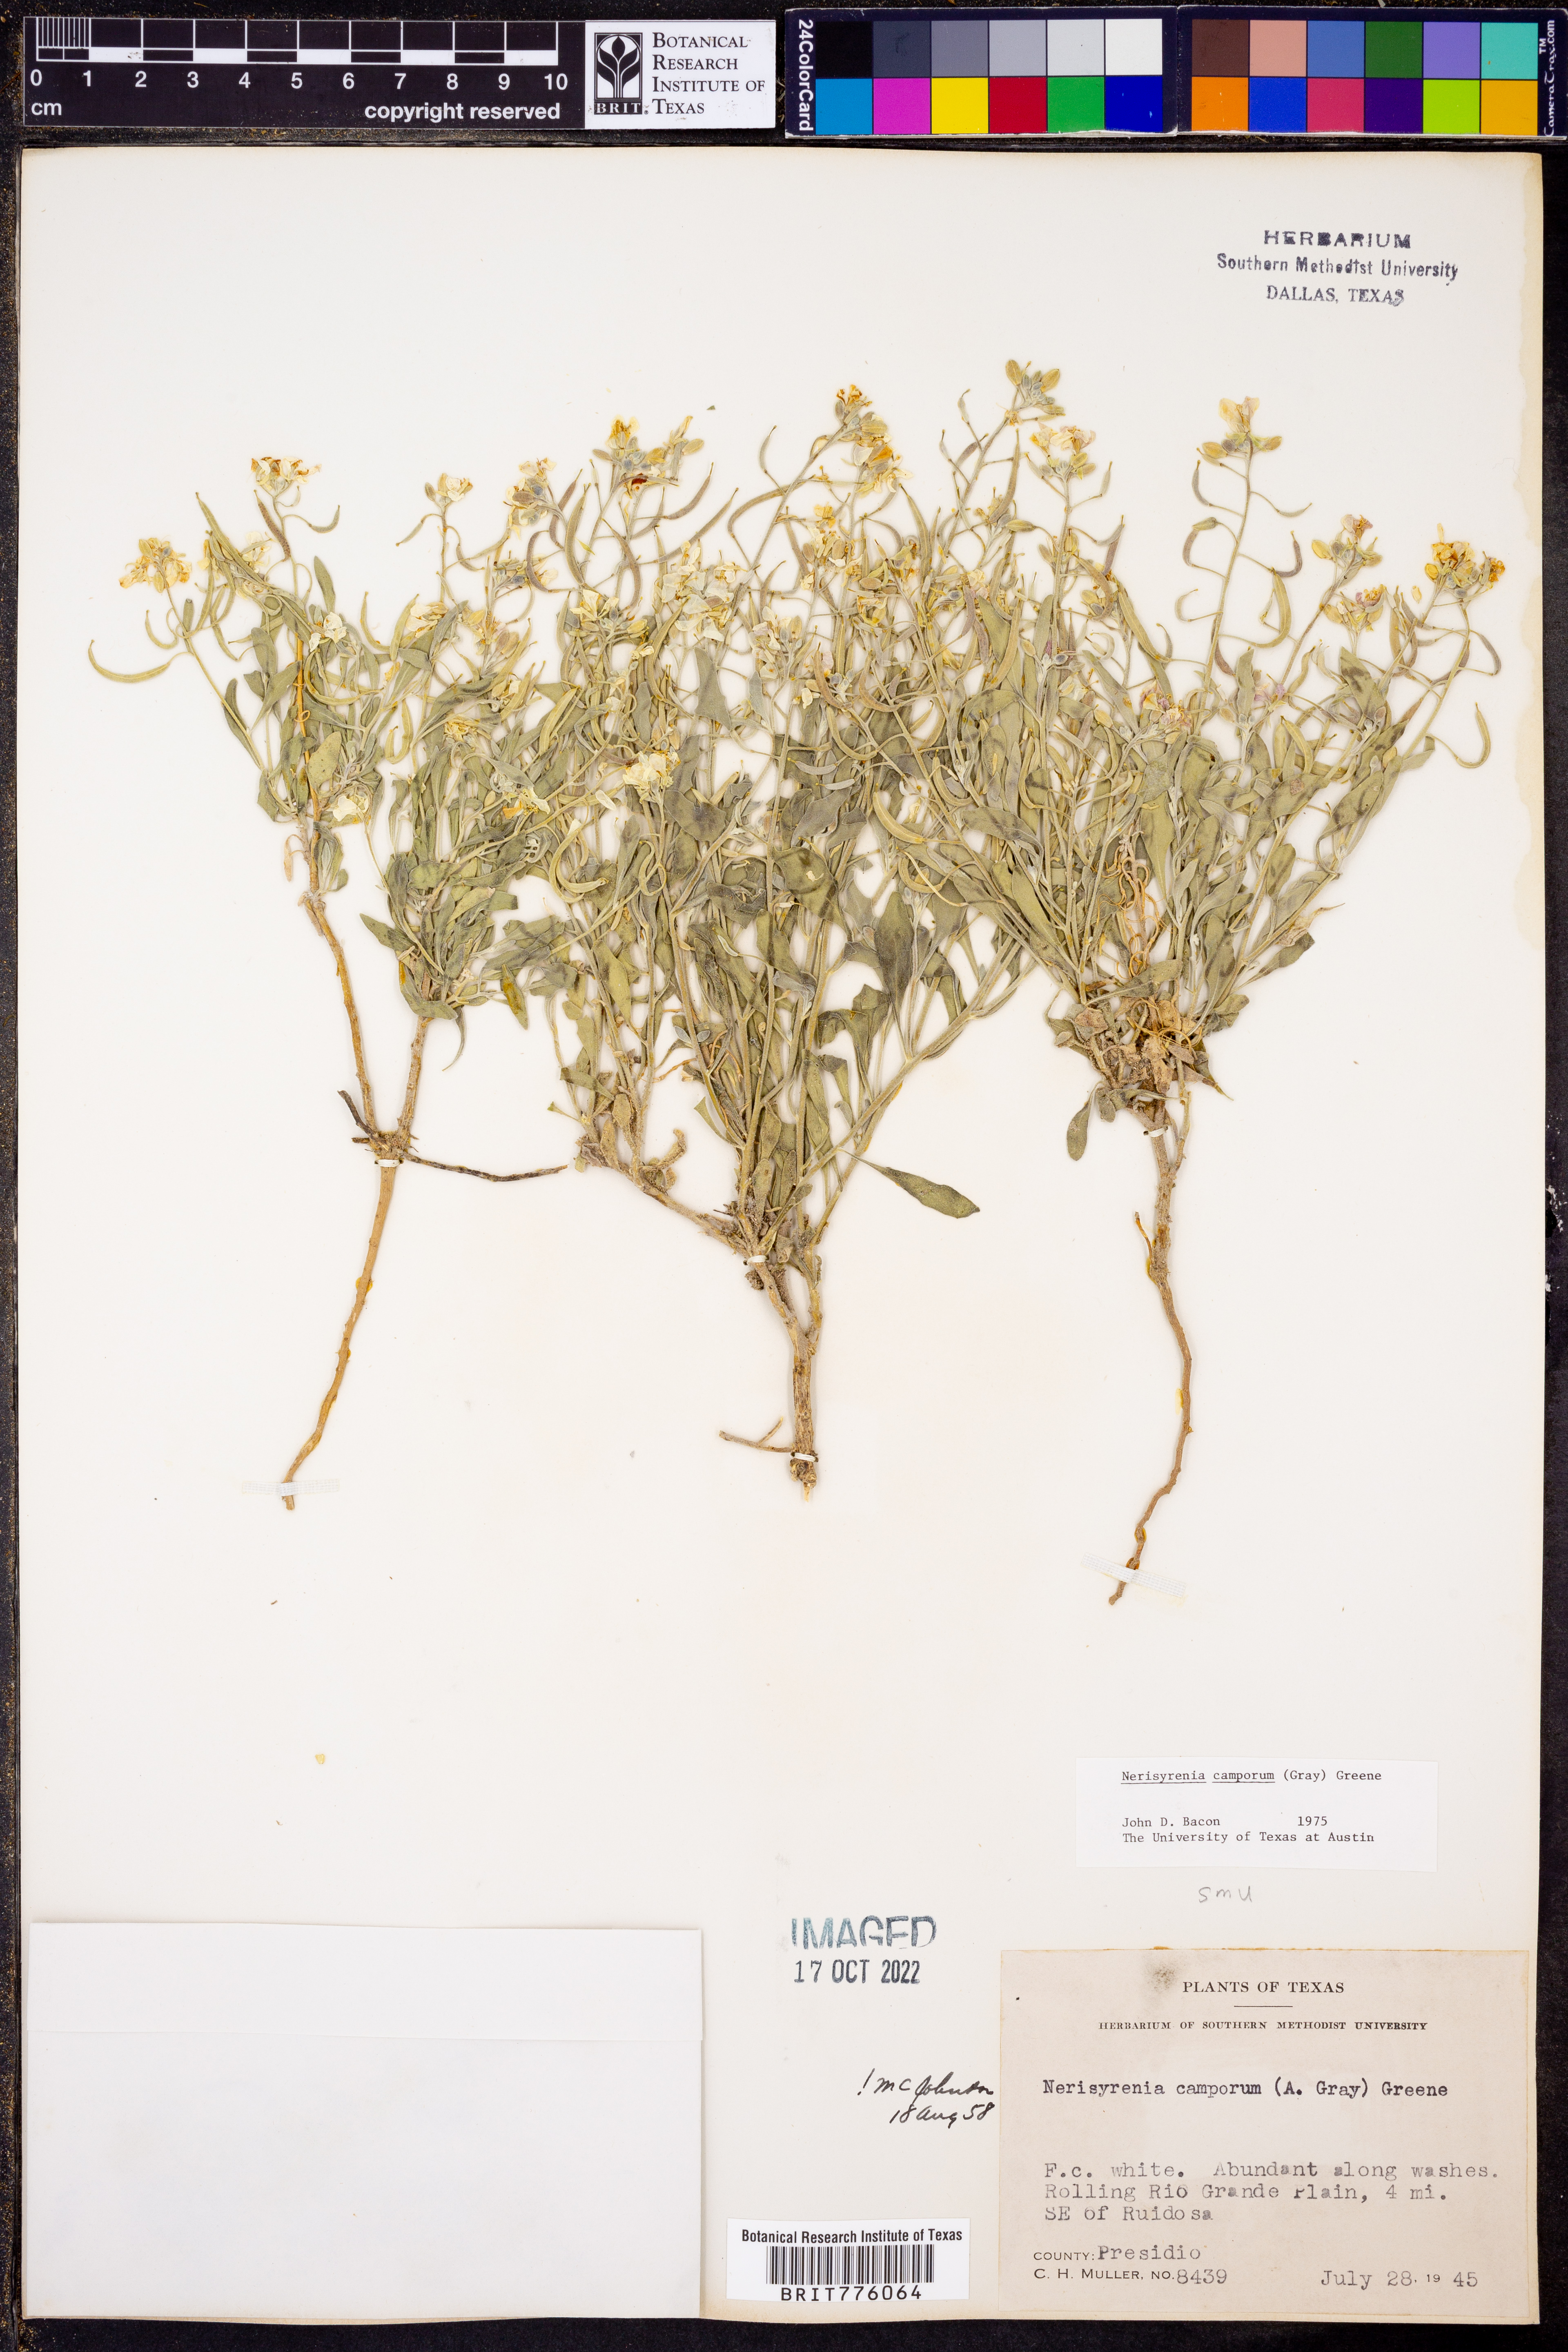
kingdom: Plantae
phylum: Tracheophyta
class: Magnoliopsida
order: Brassicales
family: Brassicaceae
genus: Nerisyrenia
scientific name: Nerisyrenia camporum
